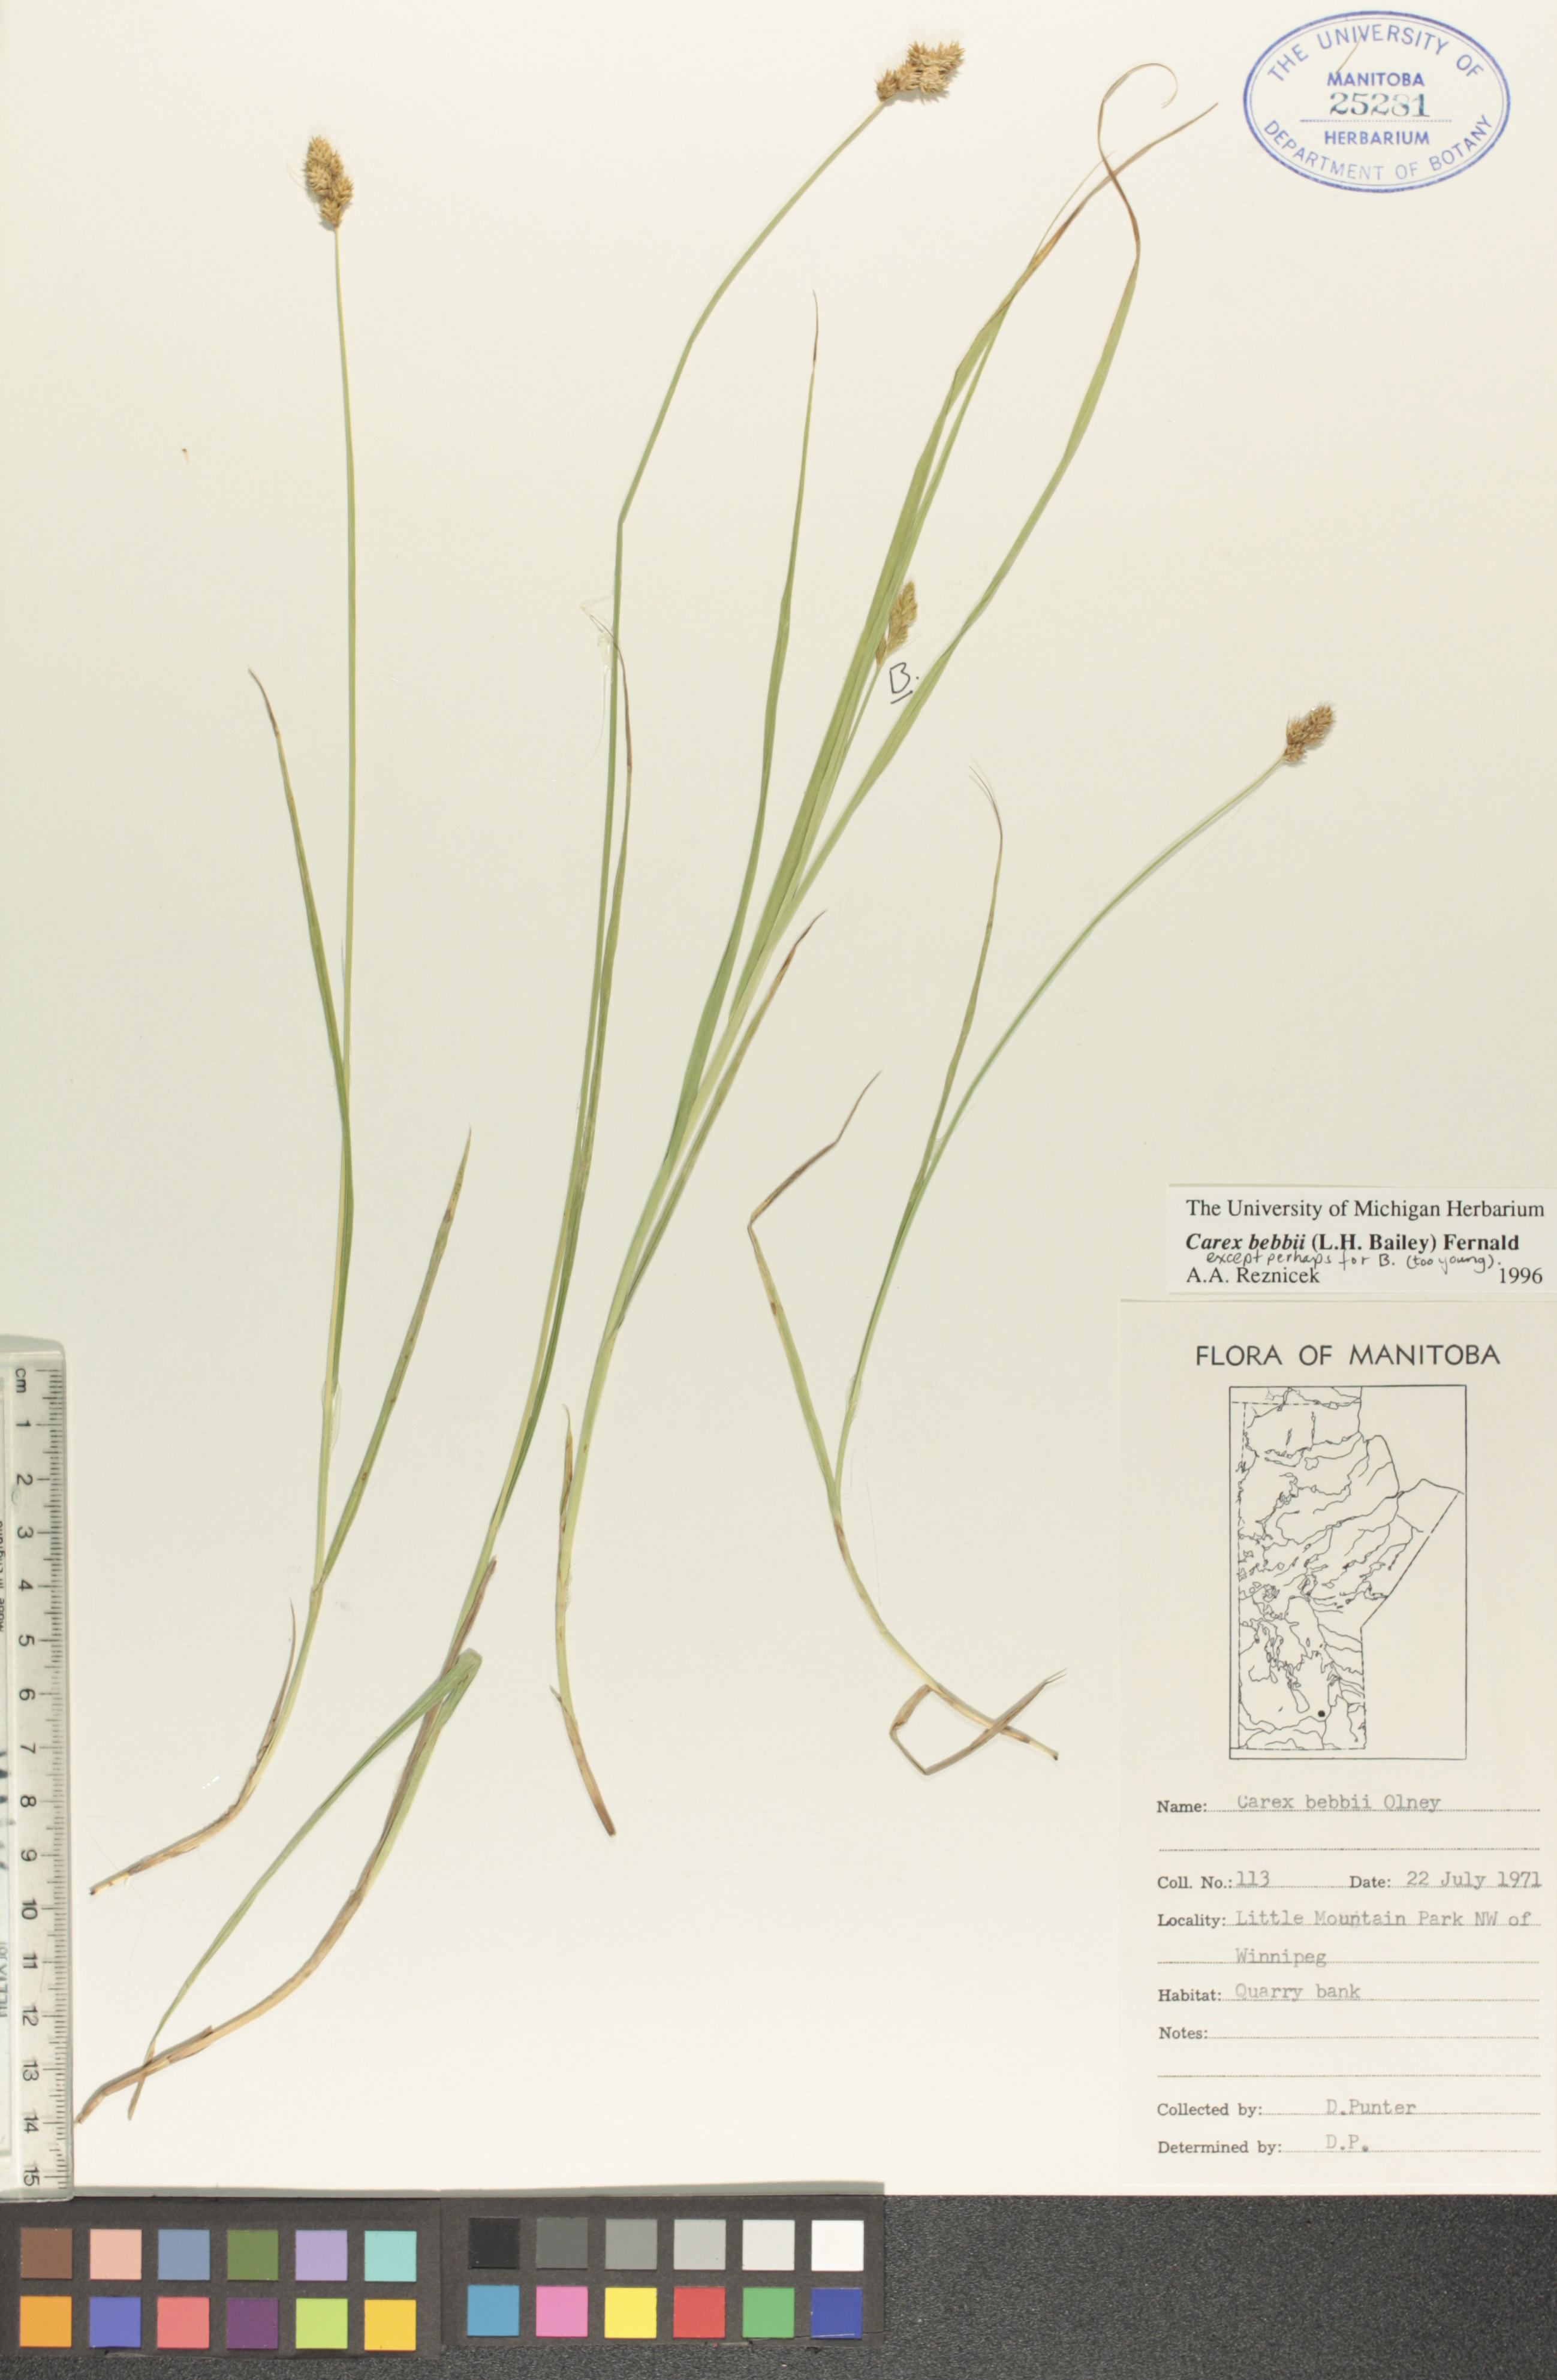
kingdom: Plantae
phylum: Tracheophyta
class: Liliopsida
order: Poales
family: Cyperaceae
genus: Carex
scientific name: Carex bebbii
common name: Bebb's sedge
